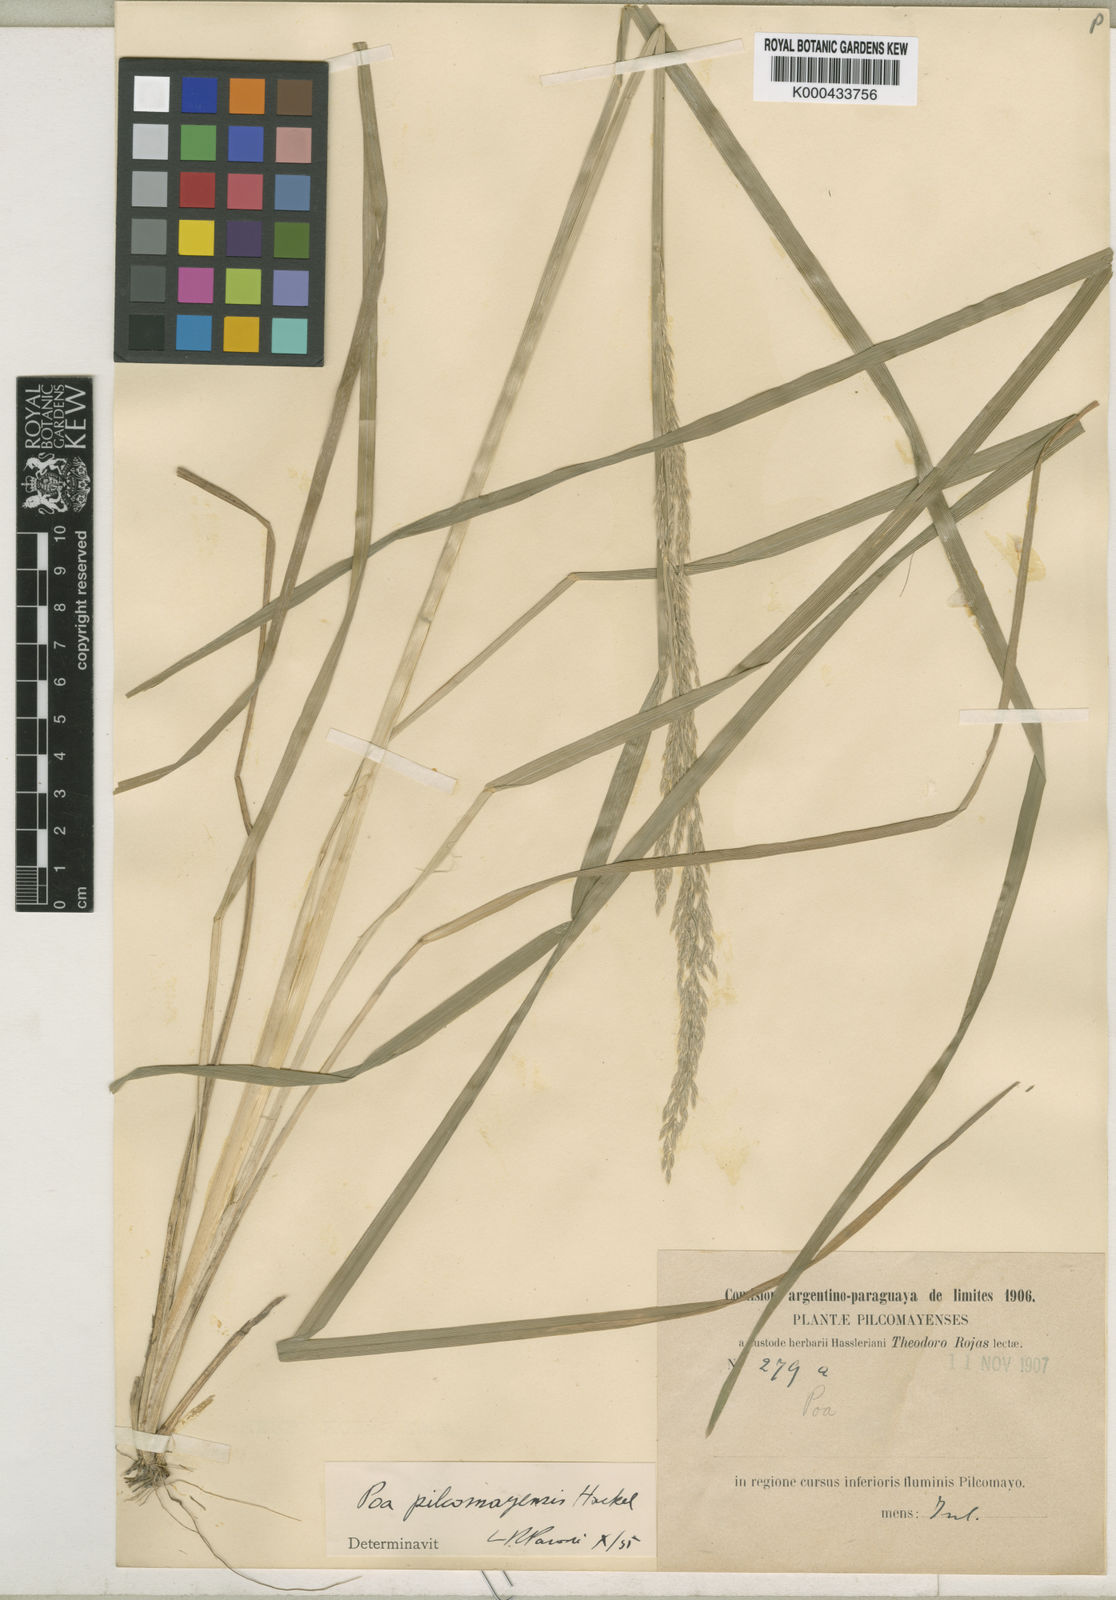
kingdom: Plantae
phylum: Tracheophyta
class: Liliopsida
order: Poales
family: Poaceae
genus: Poa
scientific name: Poa pilcomayensis
